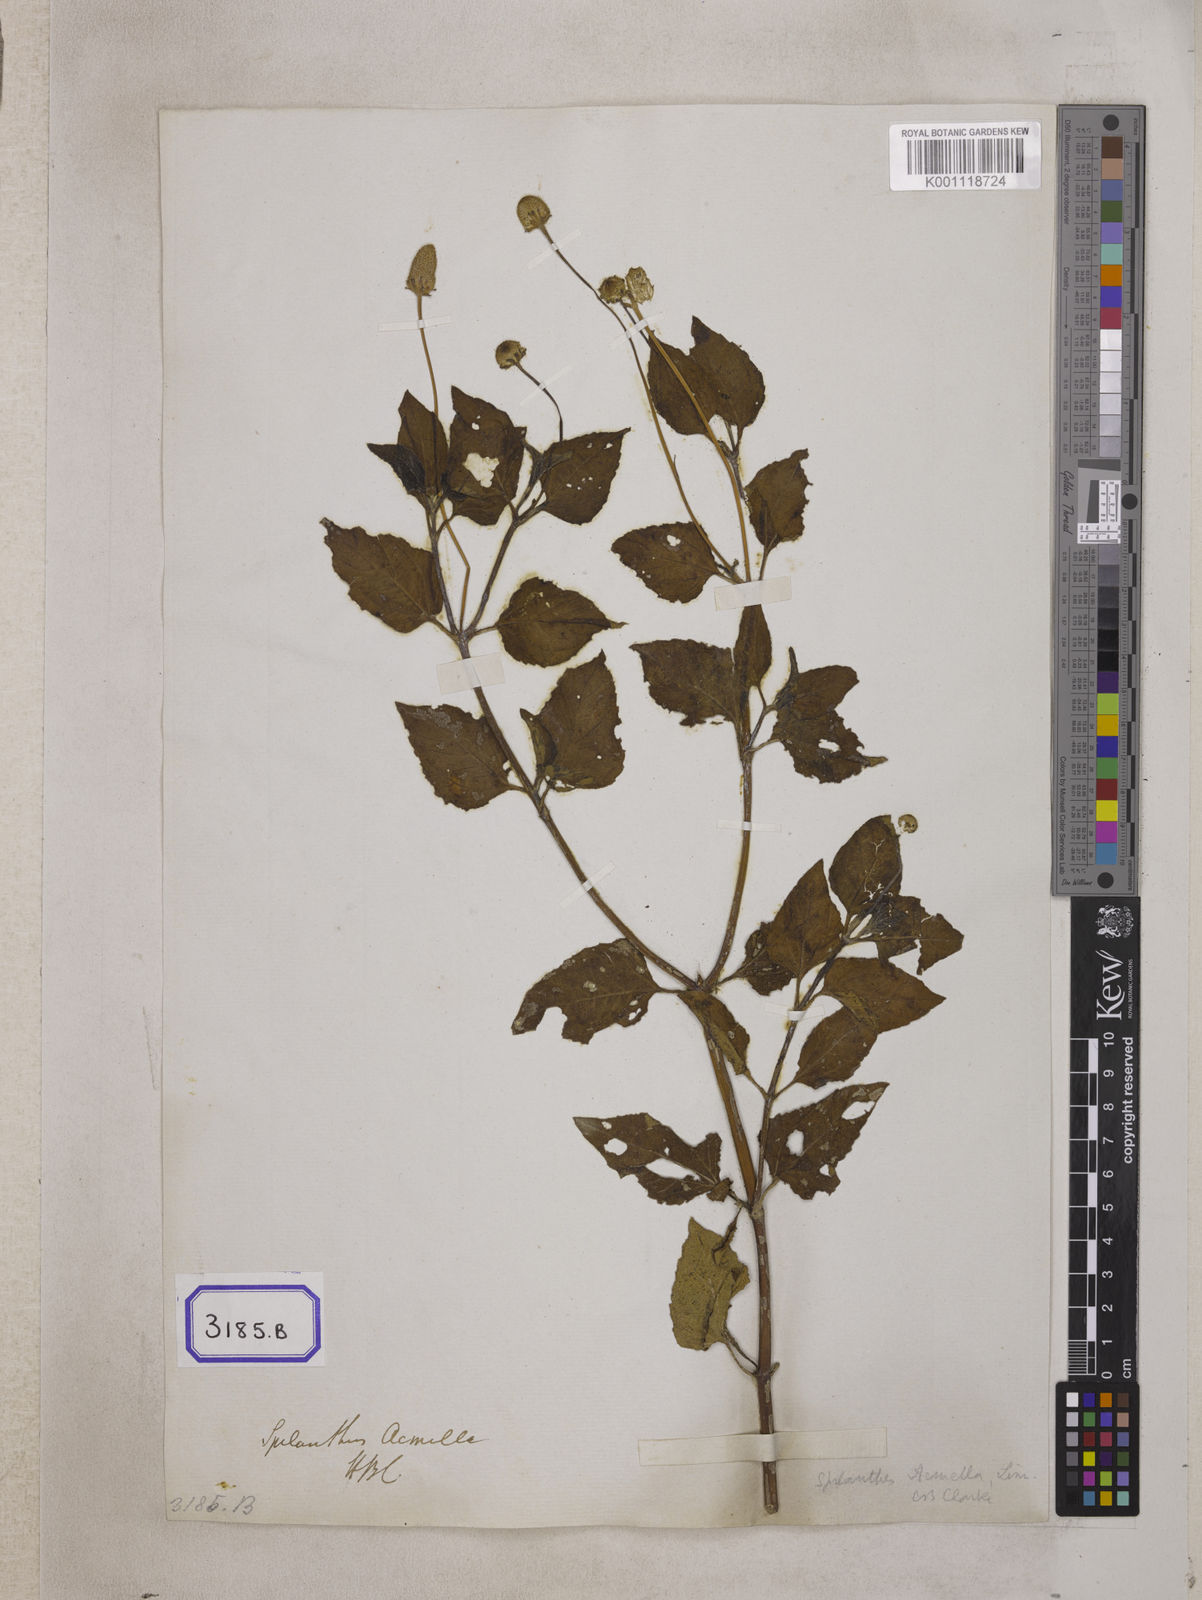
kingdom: Plantae
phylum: Tracheophyta
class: Magnoliopsida
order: Asterales
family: Asteraceae
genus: Blainvillea
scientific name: Blainvillea acmella
